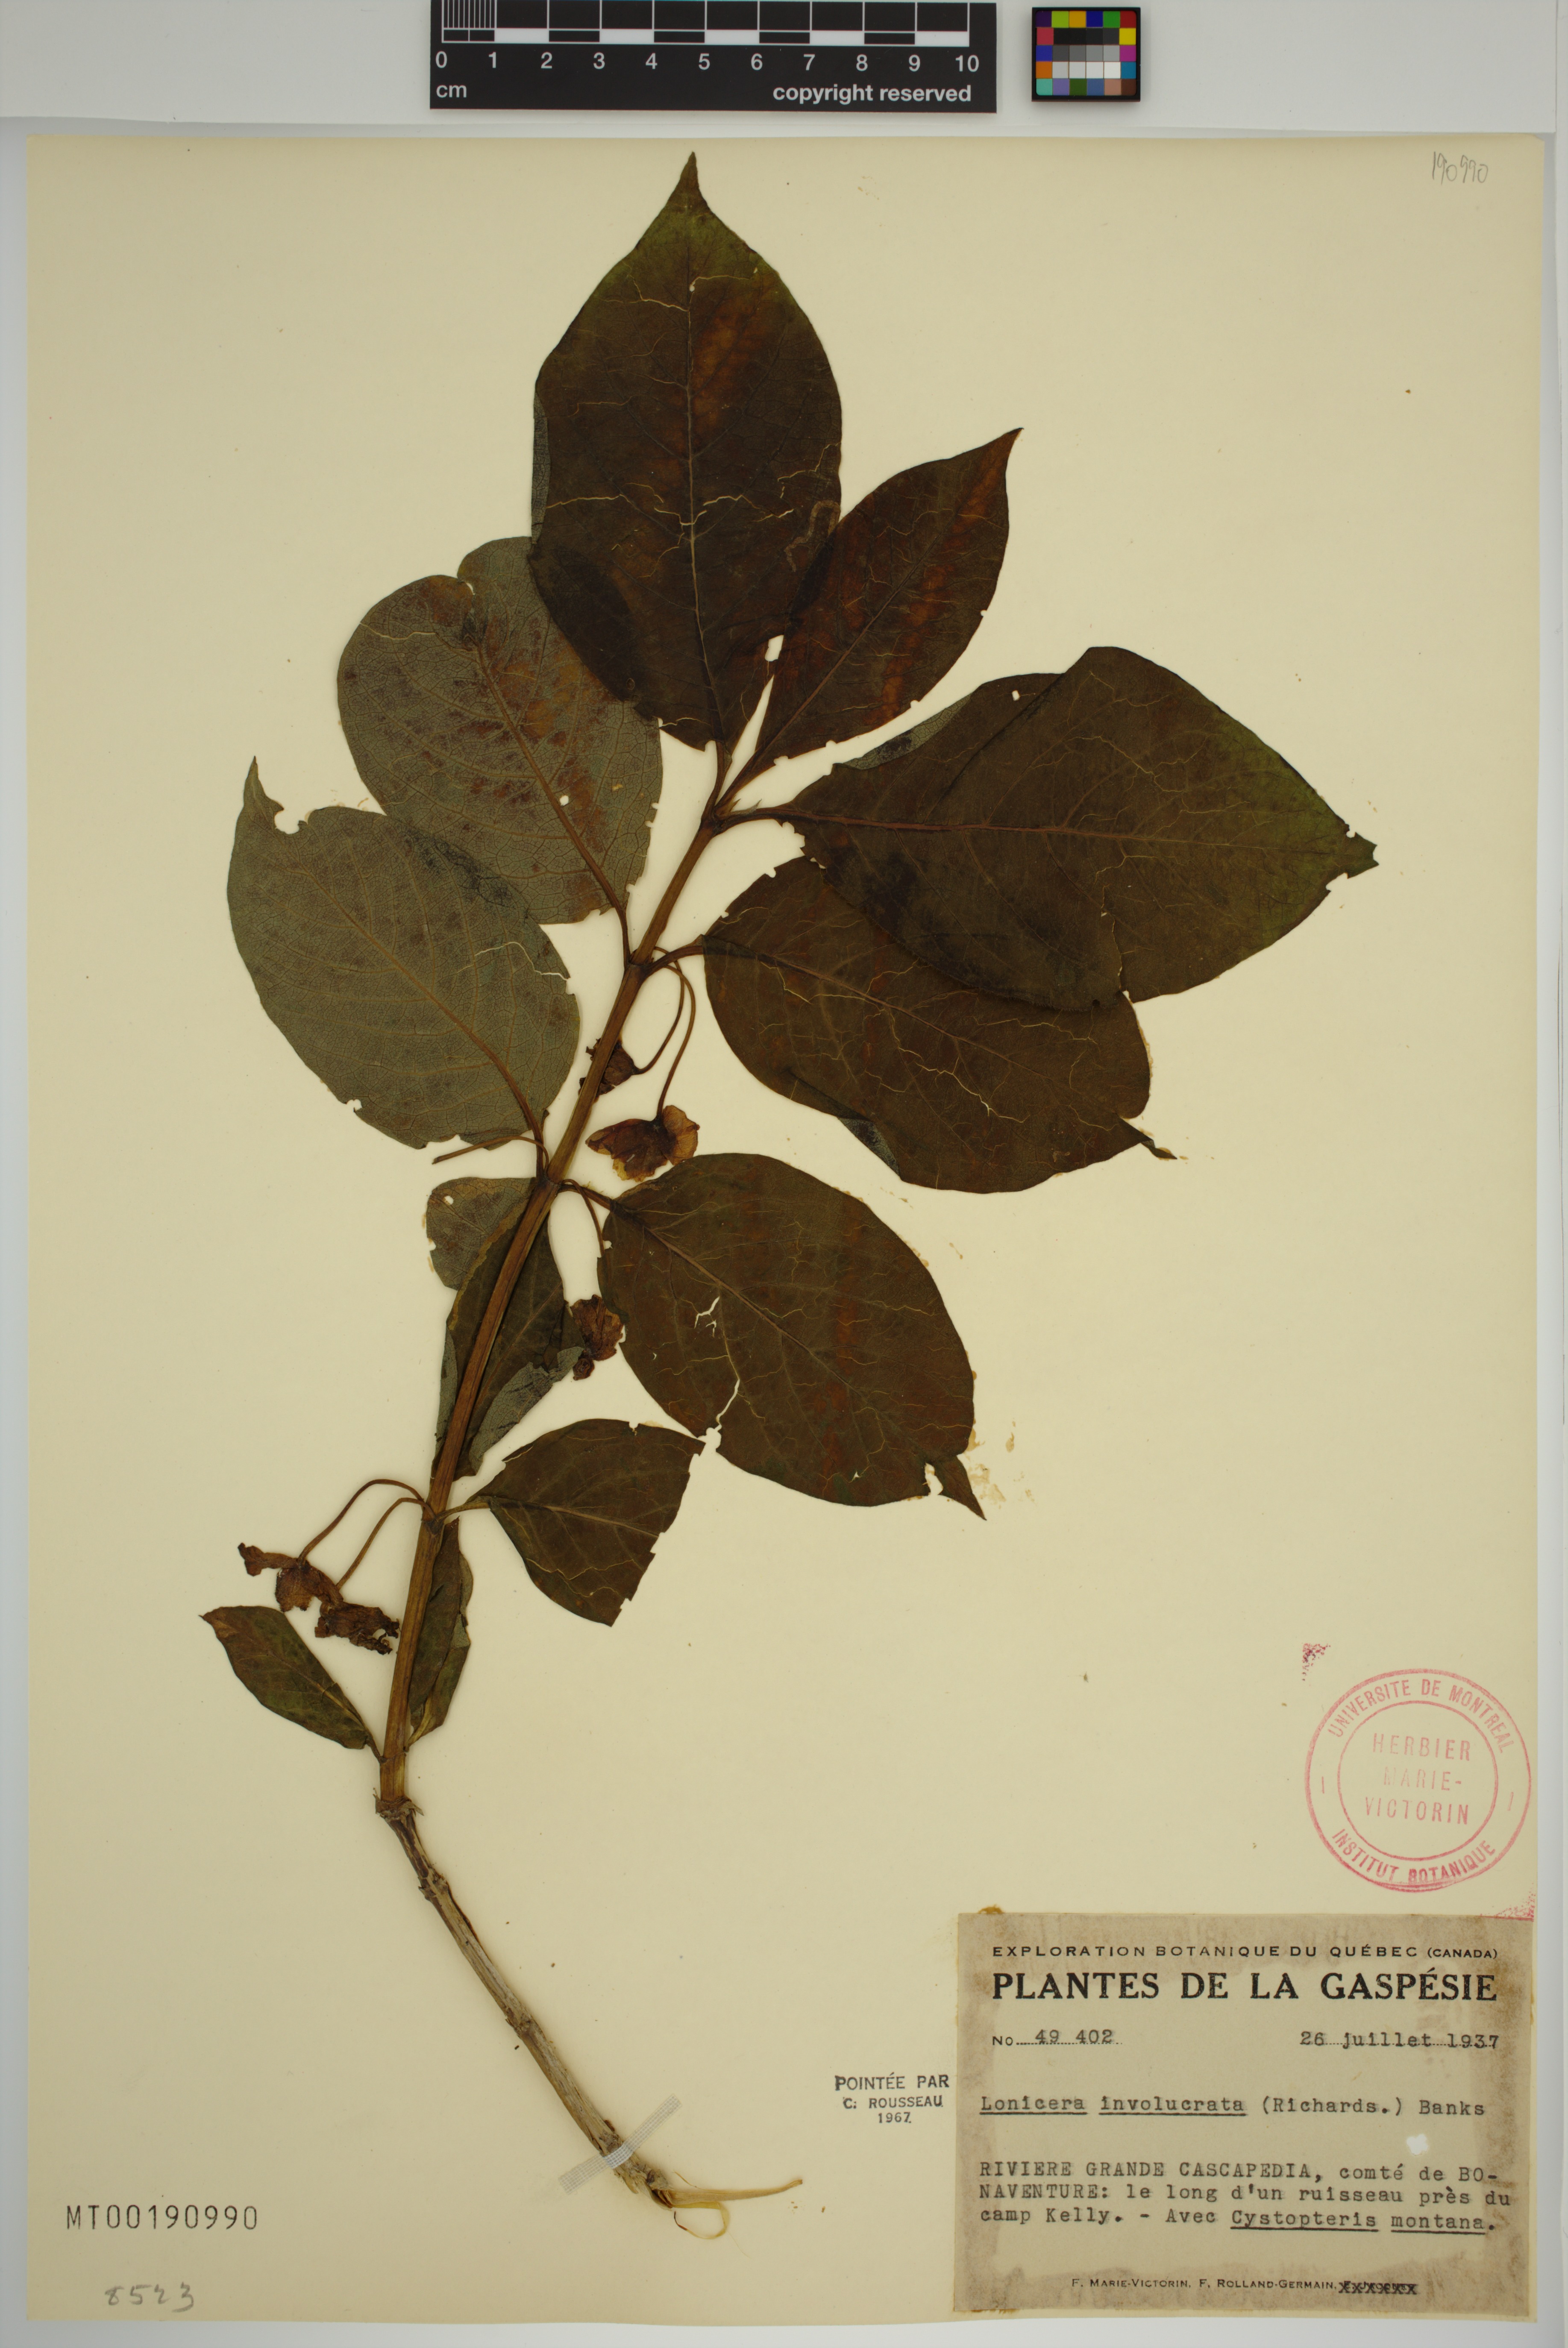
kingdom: Plantae
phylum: Tracheophyta
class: Magnoliopsida
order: Dipsacales
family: Caprifoliaceae
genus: Lonicera
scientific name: Lonicera involucrata
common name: Californian honeysuckle
